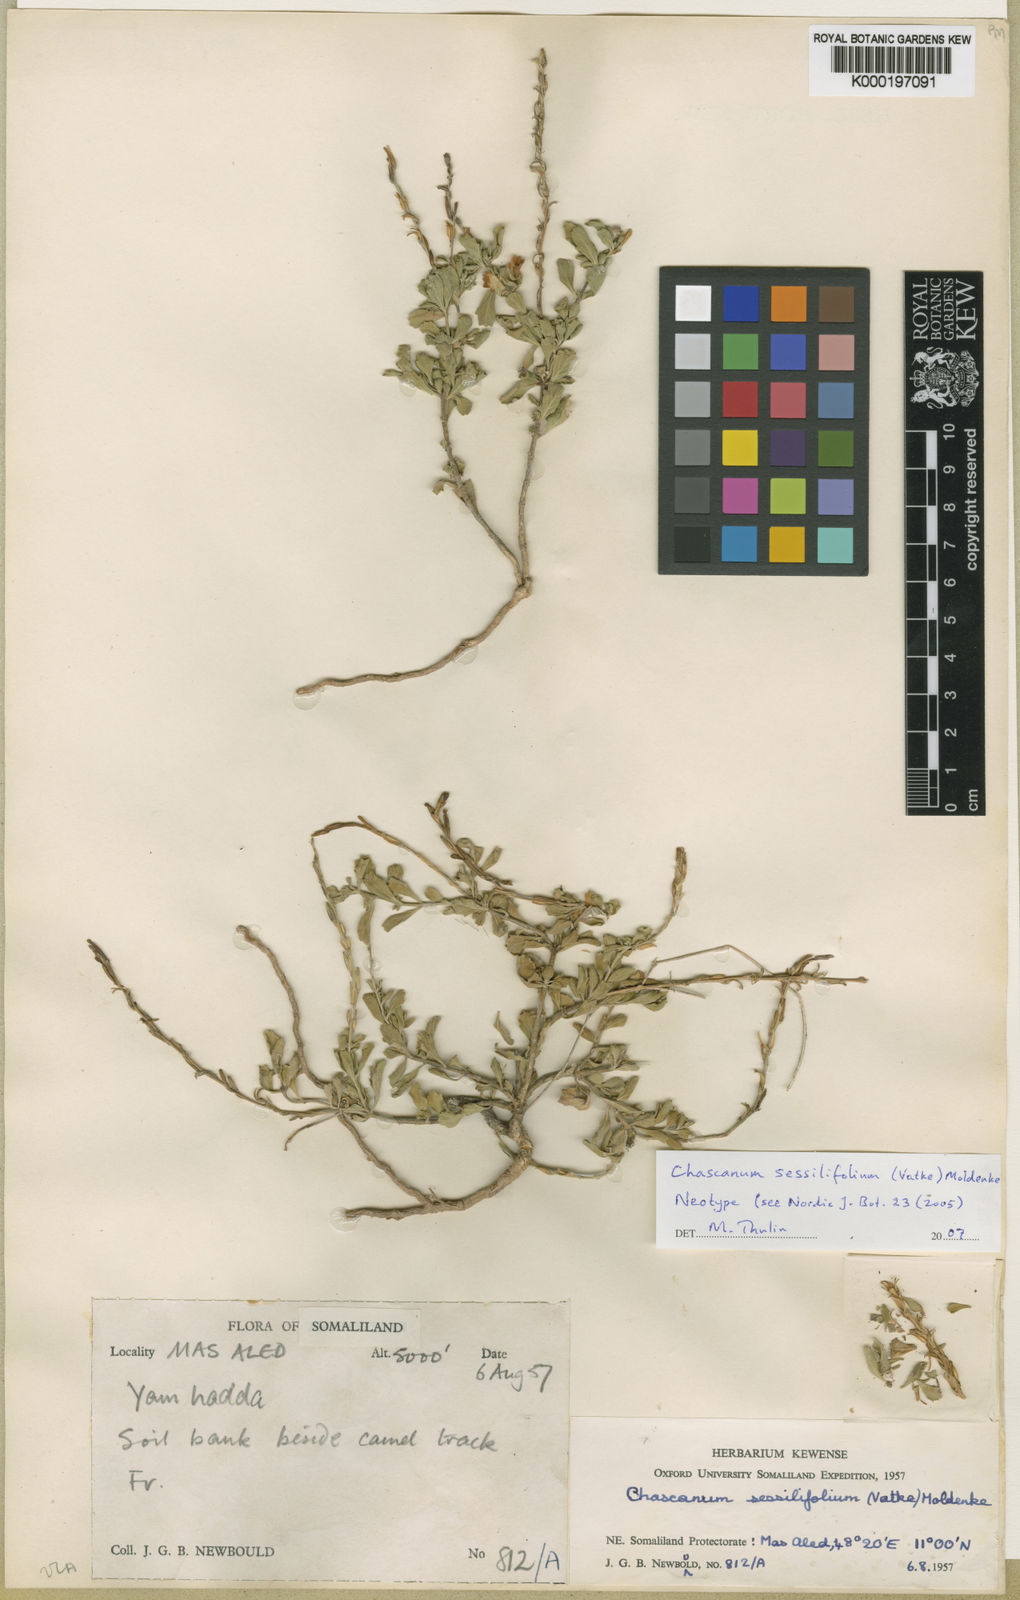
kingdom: Plantae
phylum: Tracheophyta
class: Magnoliopsida
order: Lamiales
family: Verbenaceae
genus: Chascanum
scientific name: Chascanum sessilifolium
